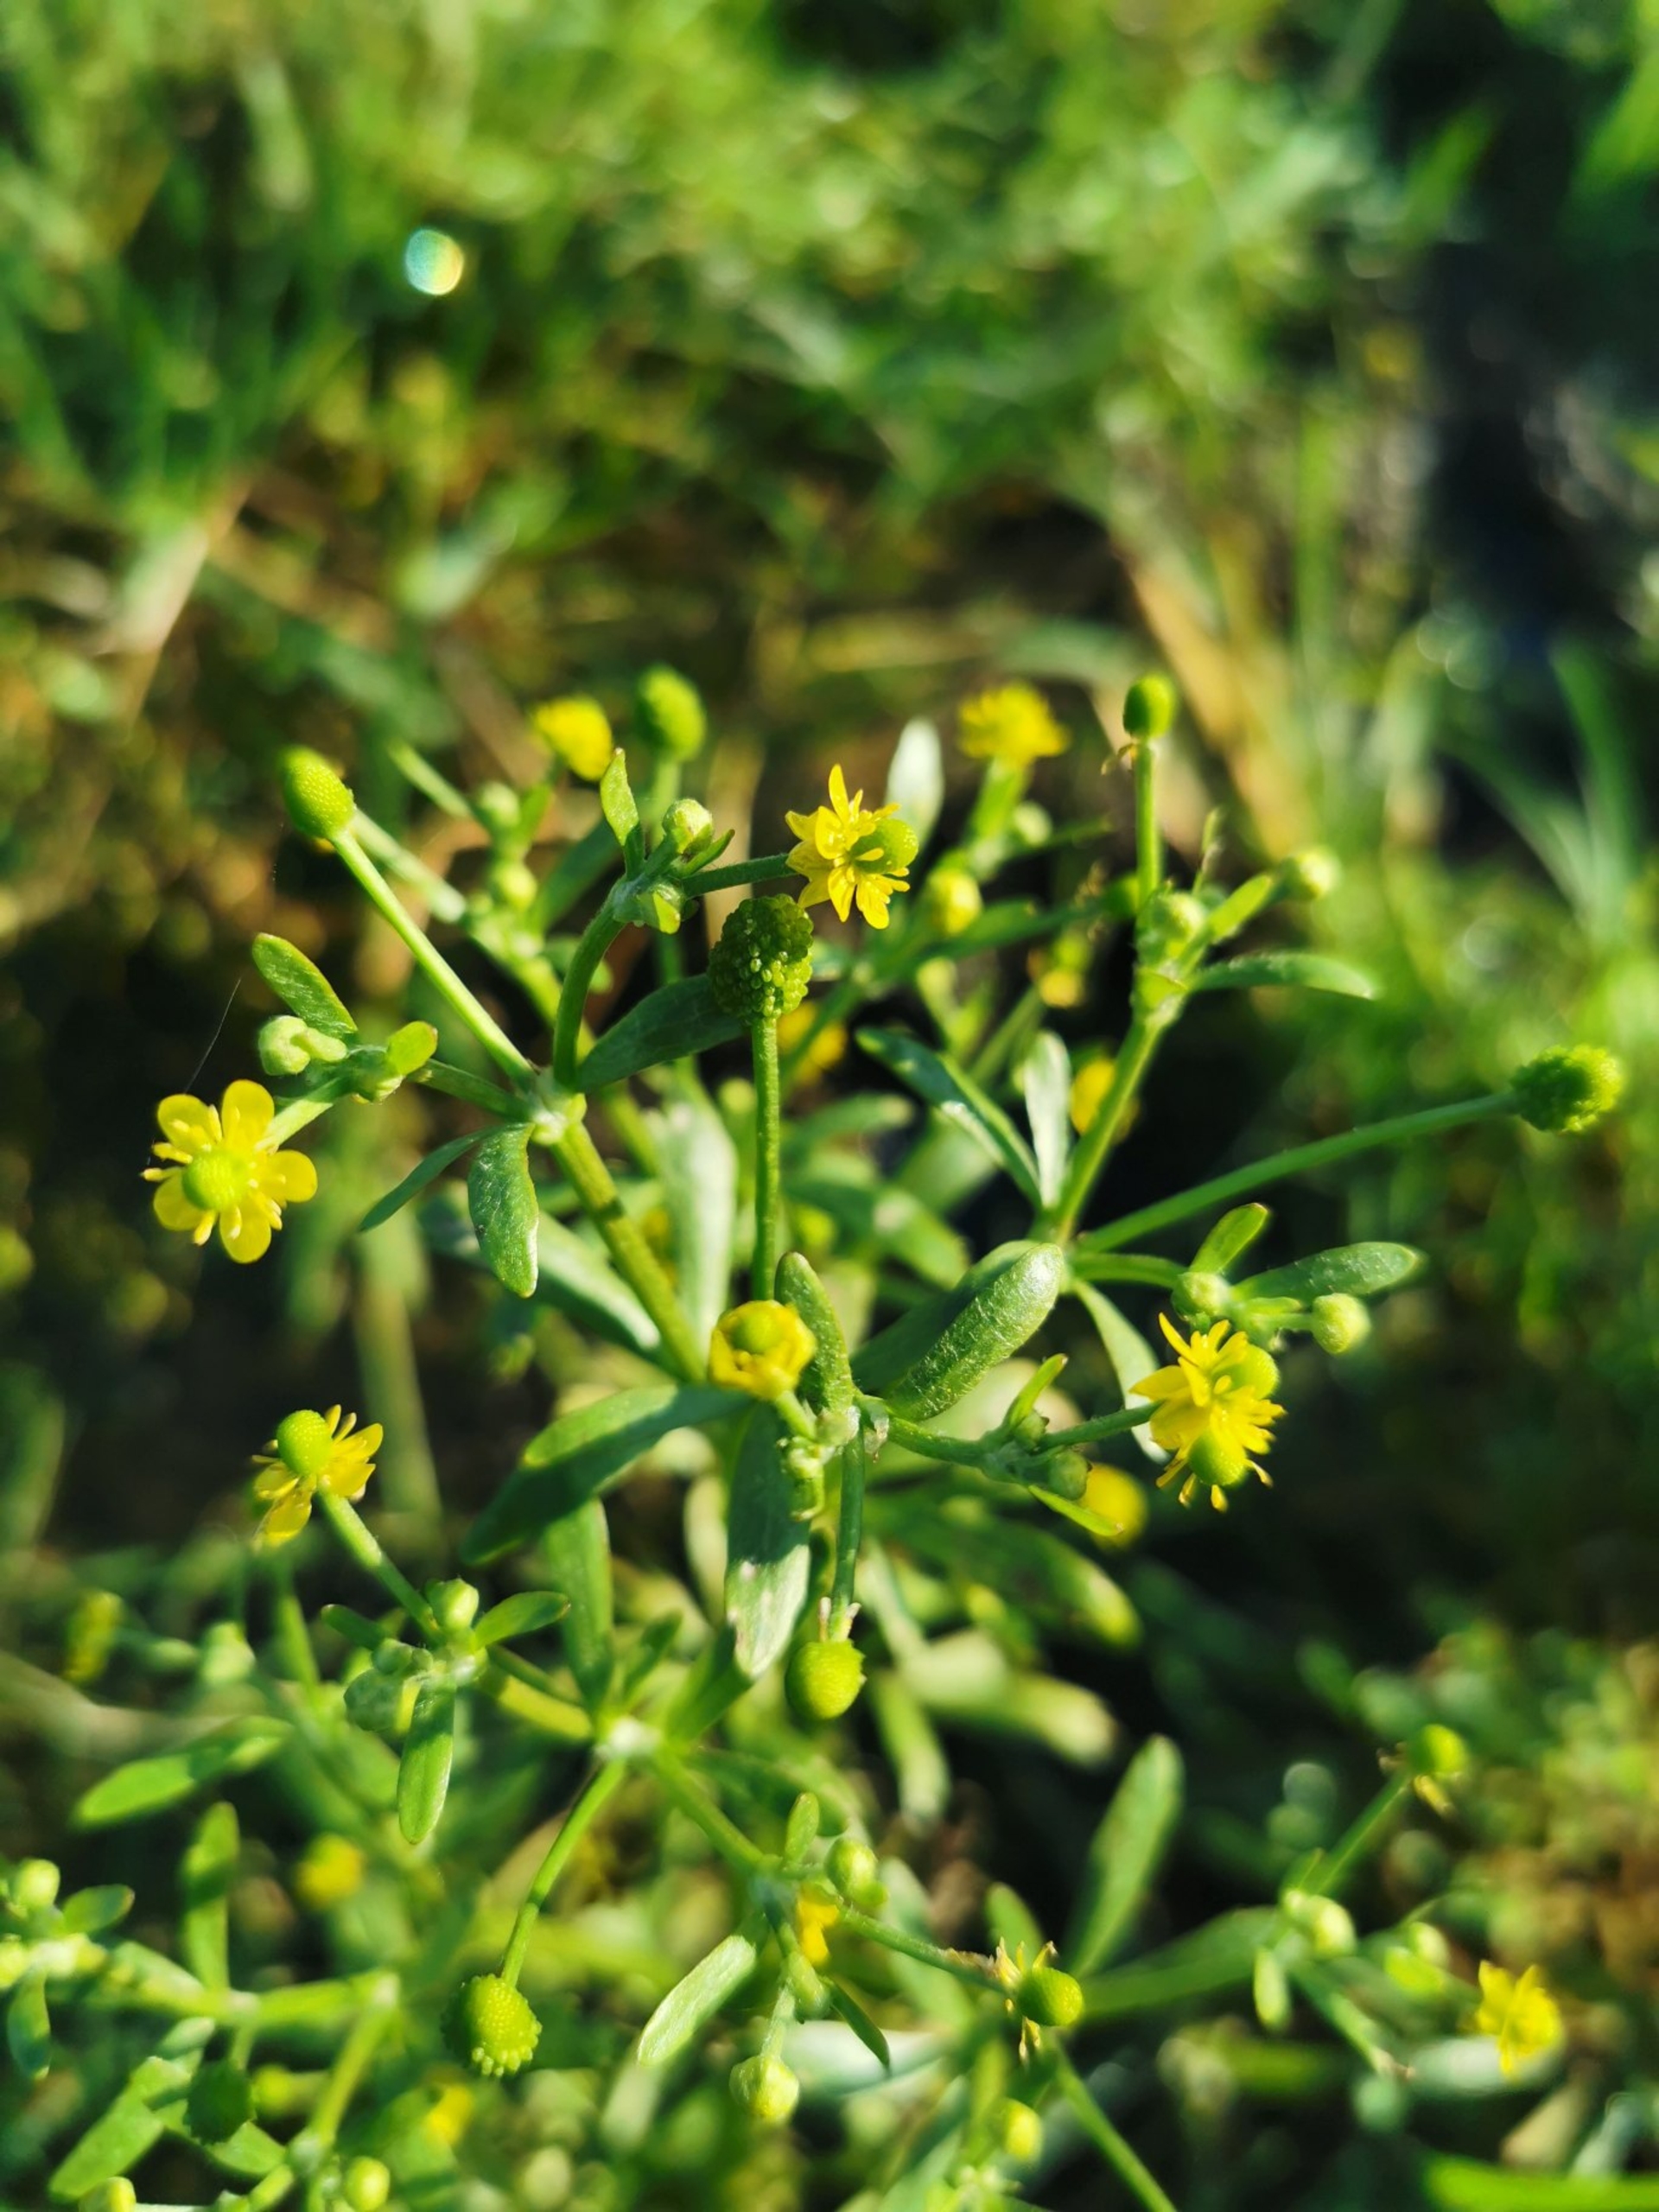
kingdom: Plantae
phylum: Tracheophyta
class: Magnoliopsida
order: Ranunculales
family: Ranunculaceae
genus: Ranunculus
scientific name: Ranunculus sceleratus
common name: Tigger-ranunkel
